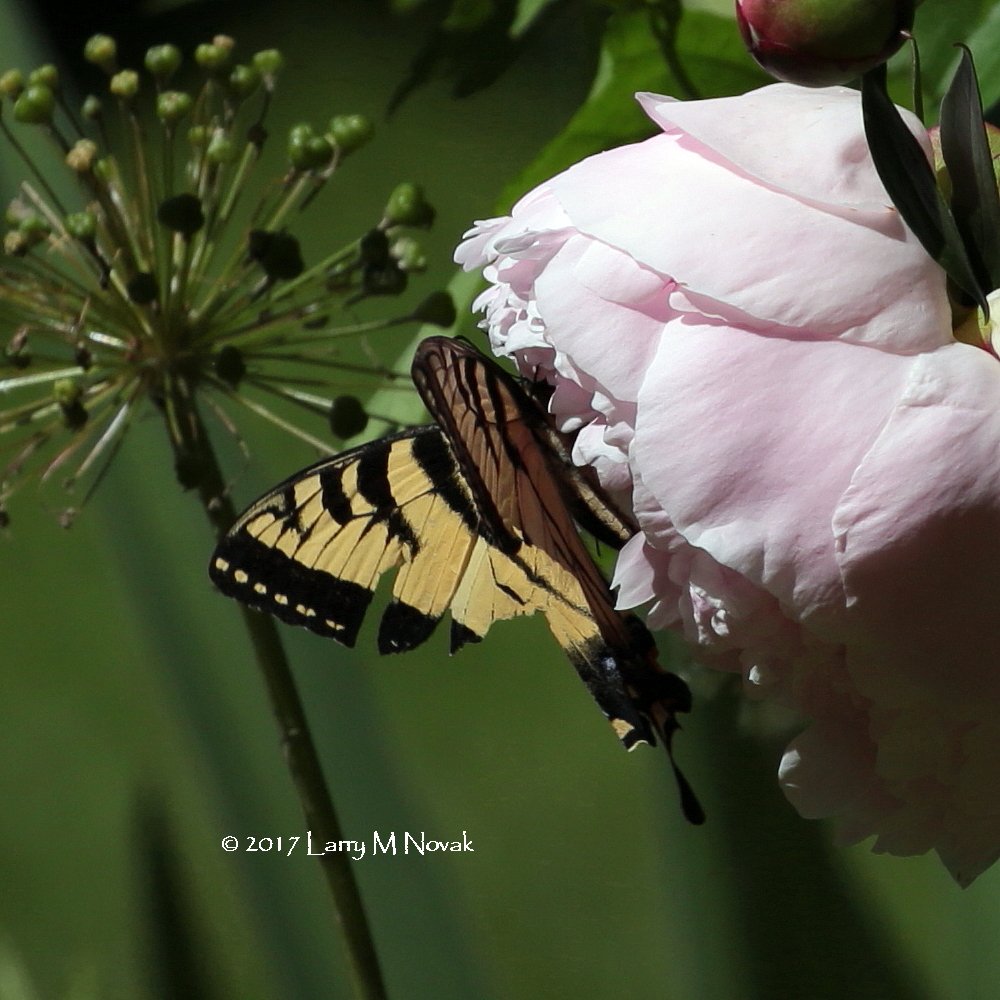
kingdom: Animalia
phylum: Arthropoda
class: Insecta
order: Lepidoptera
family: Papilionidae
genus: Pterourus
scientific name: Pterourus canadensis
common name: Canadian Tiger Swallowtail
